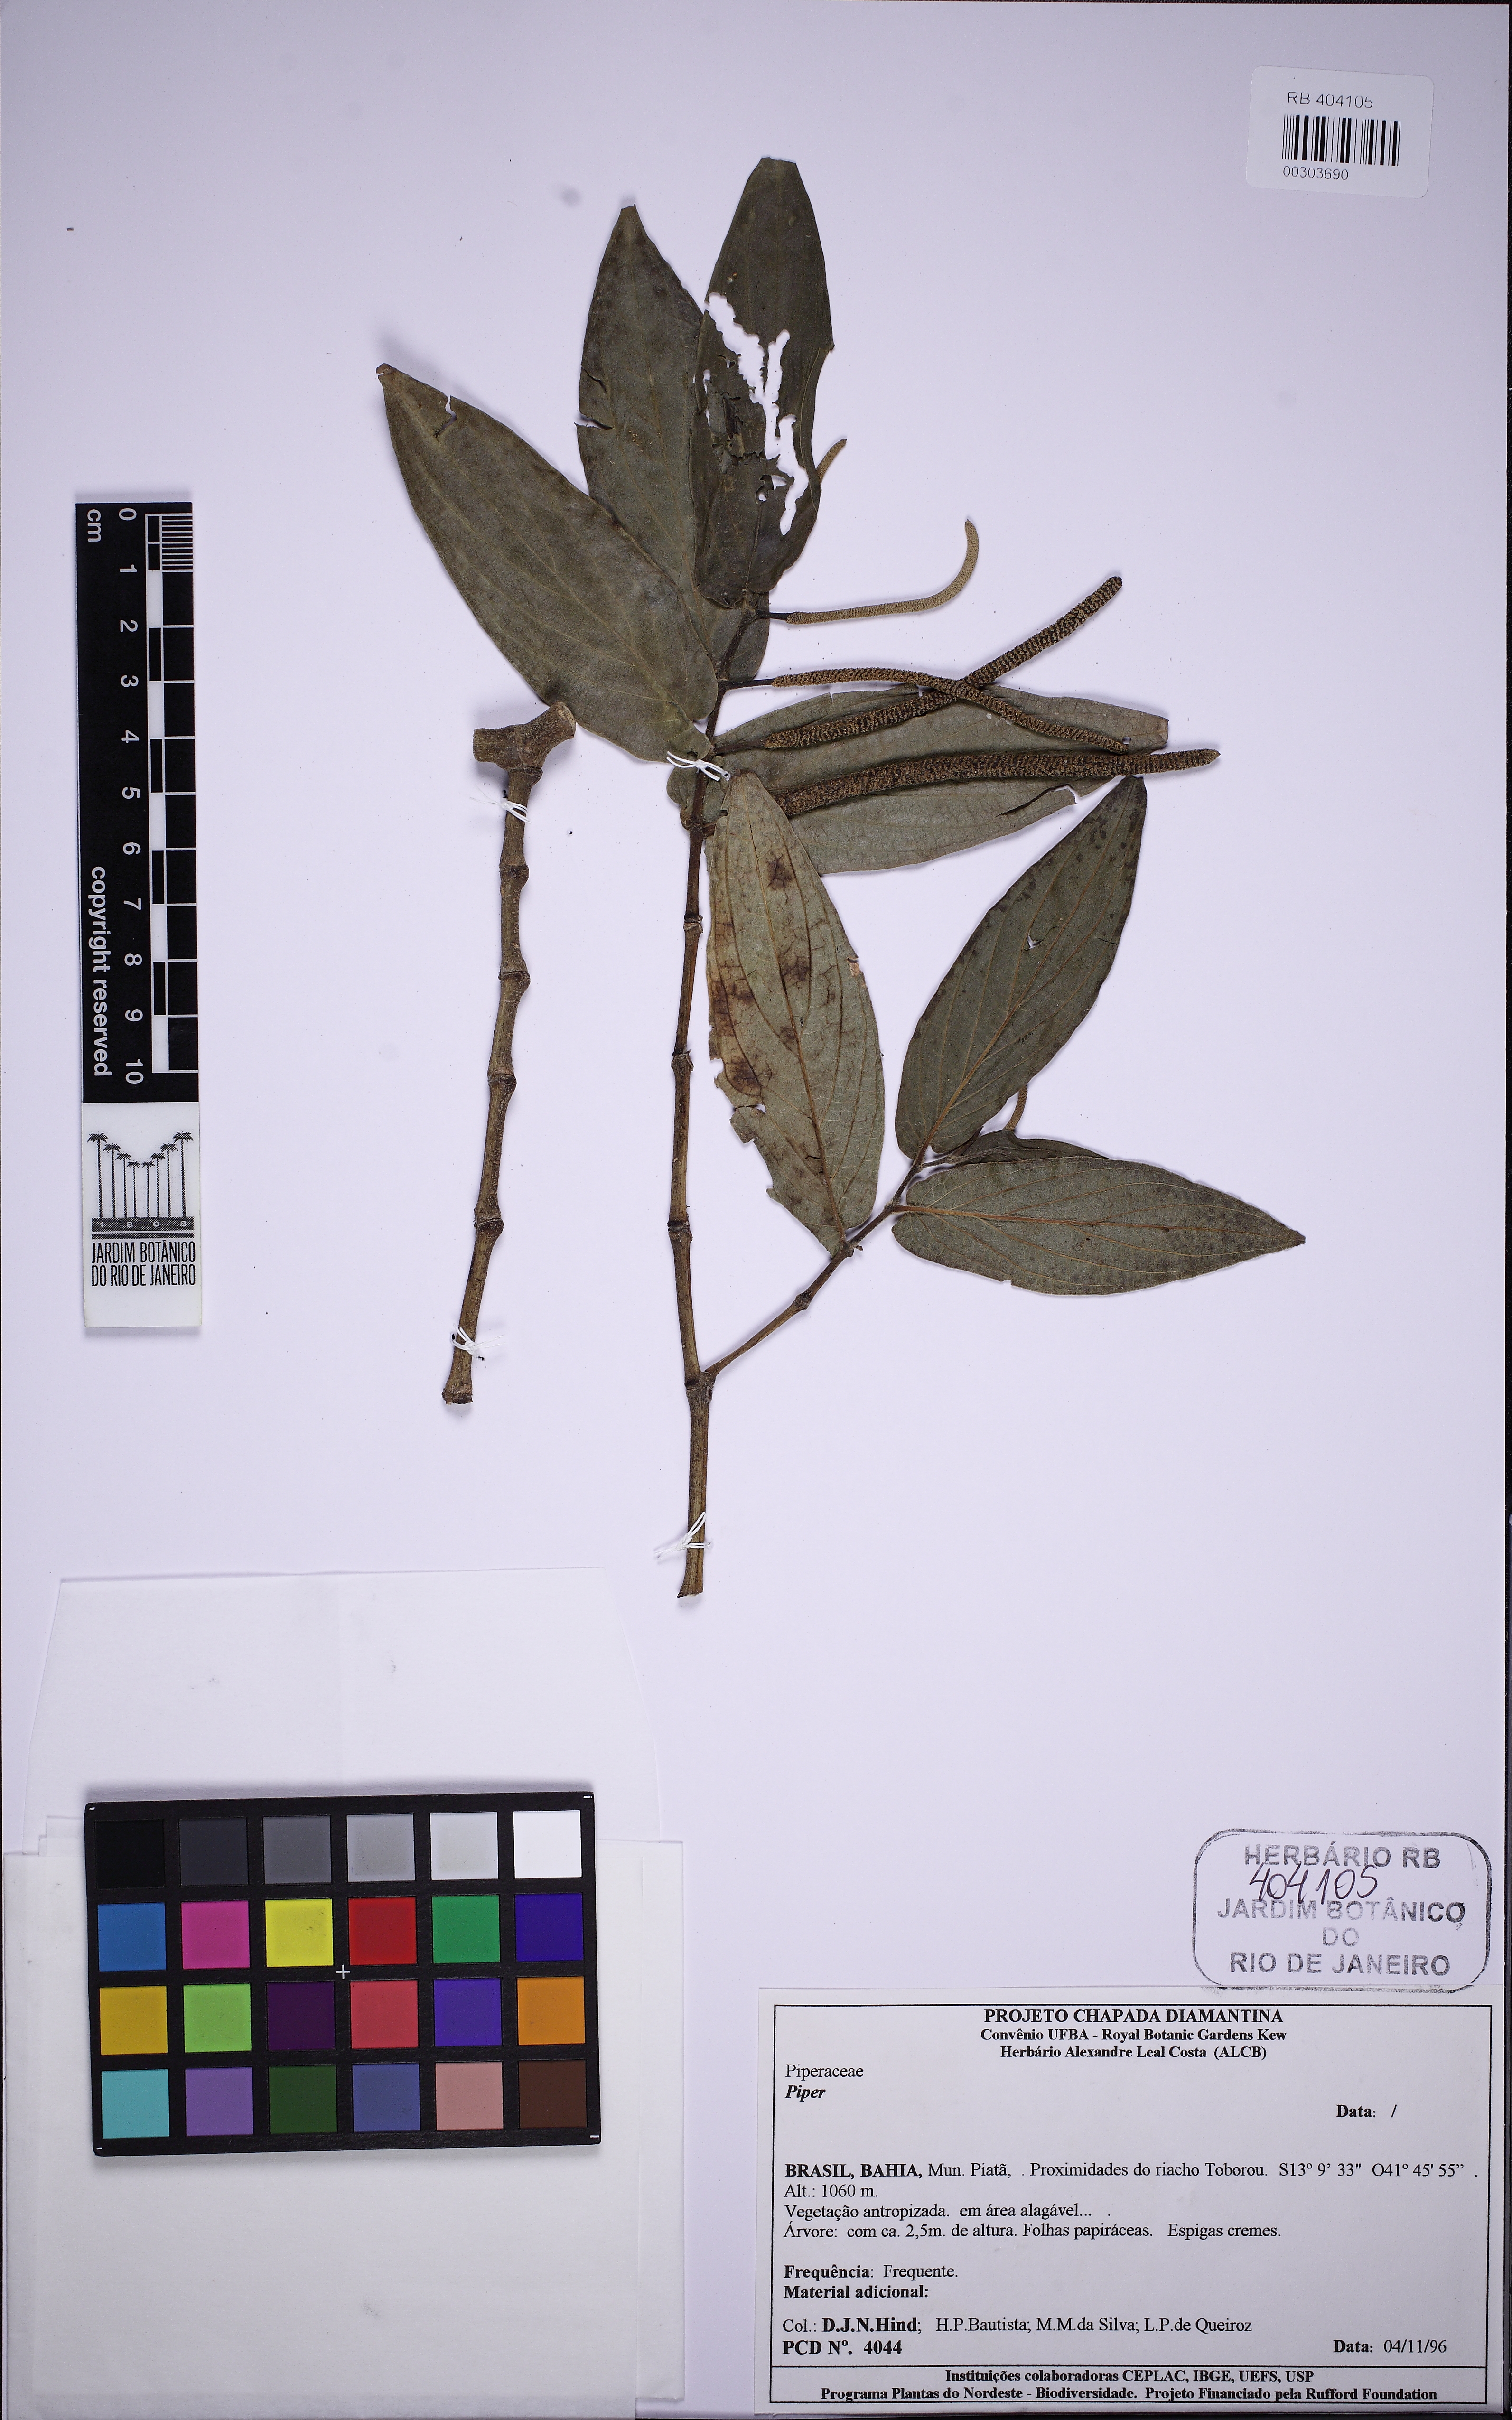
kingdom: Plantae
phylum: Tracheophyta
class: Magnoliopsida
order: Piperales
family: Piperaceae
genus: Peperomia
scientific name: Peperomia
